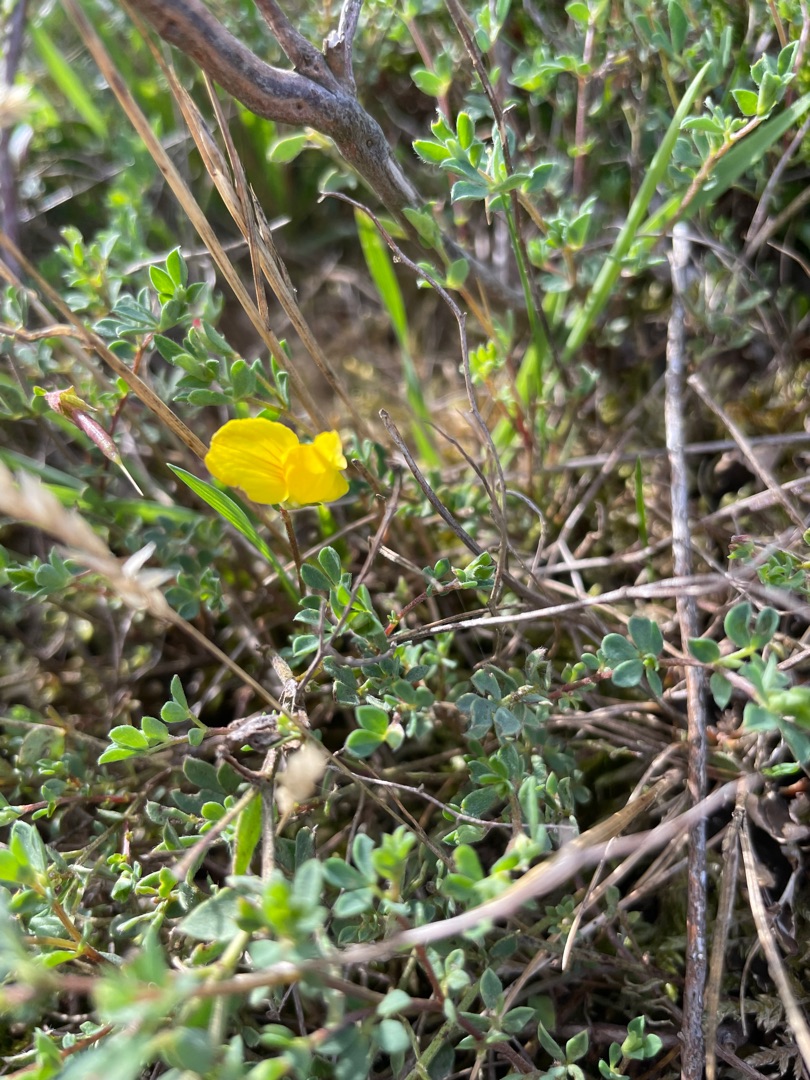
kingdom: Plantae
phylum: Tracheophyta
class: Magnoliopsida
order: Fabales
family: Fabaceae
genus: Lotus
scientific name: Lotus corniculatus
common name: Almindelig kællingetand
